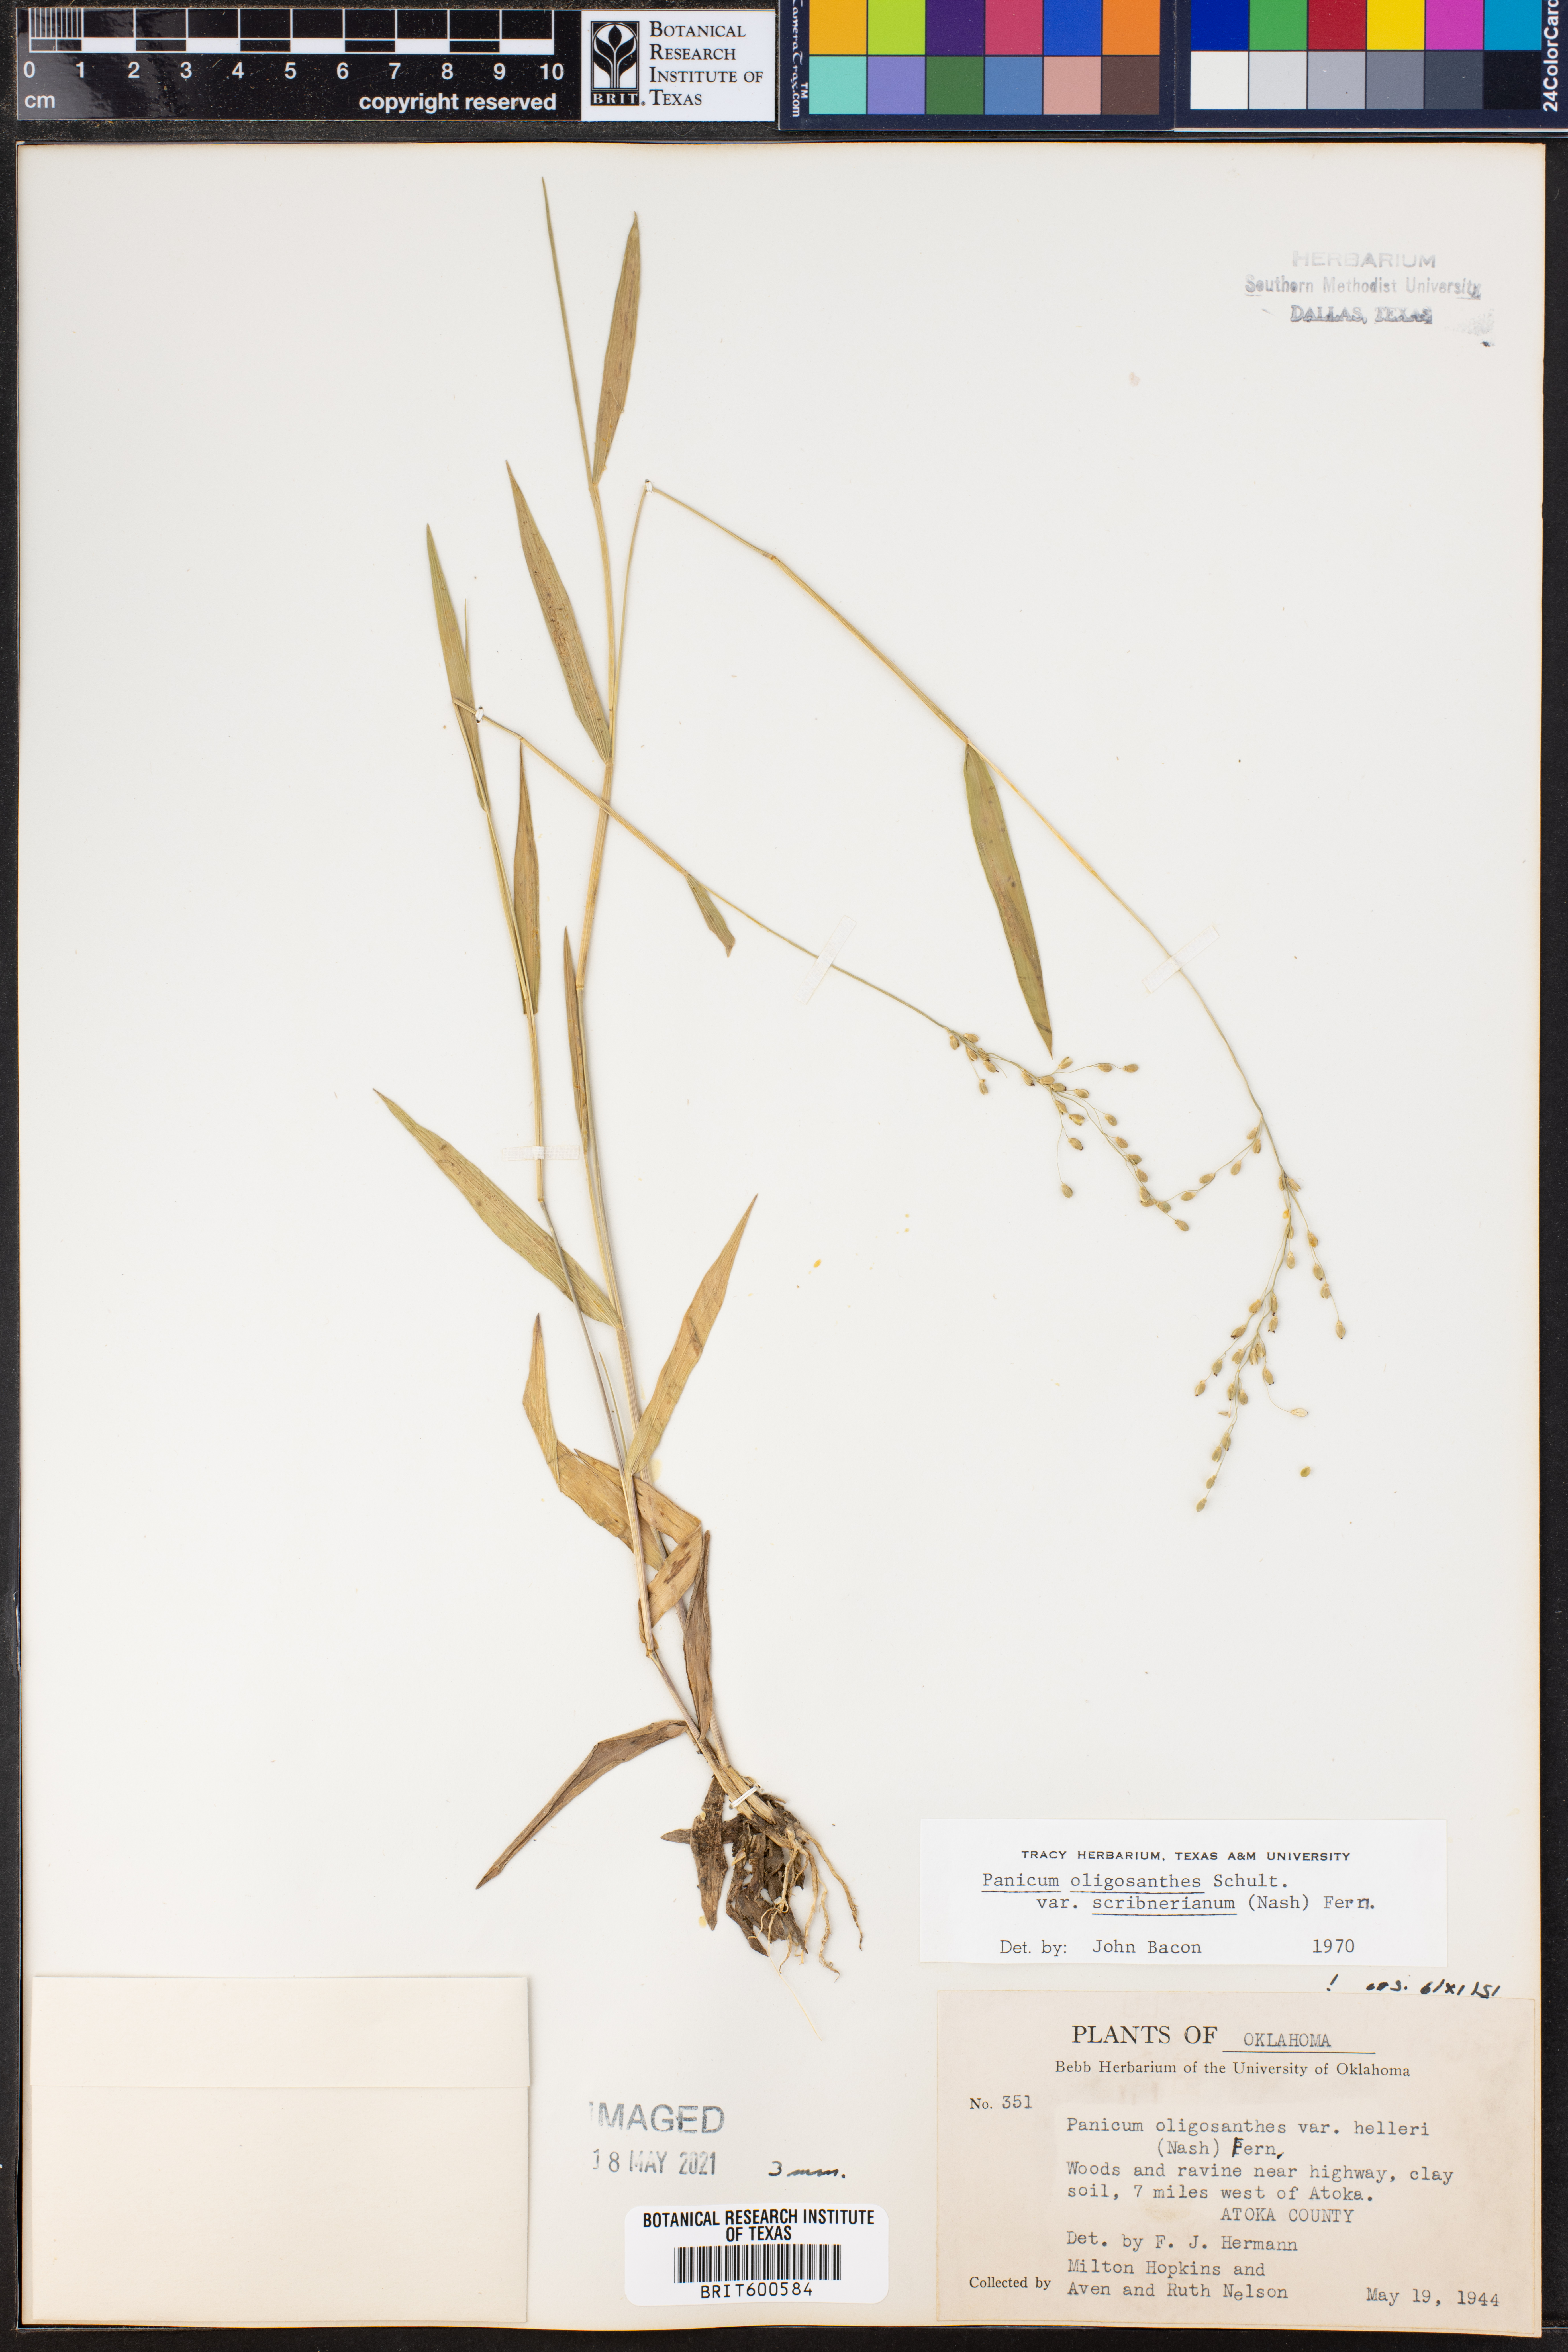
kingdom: Plantae
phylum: Tracheophyta
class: Liliopsida
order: Poales
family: Poaceae
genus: Dichanthelium
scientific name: Dichanthelium scribnerianum
